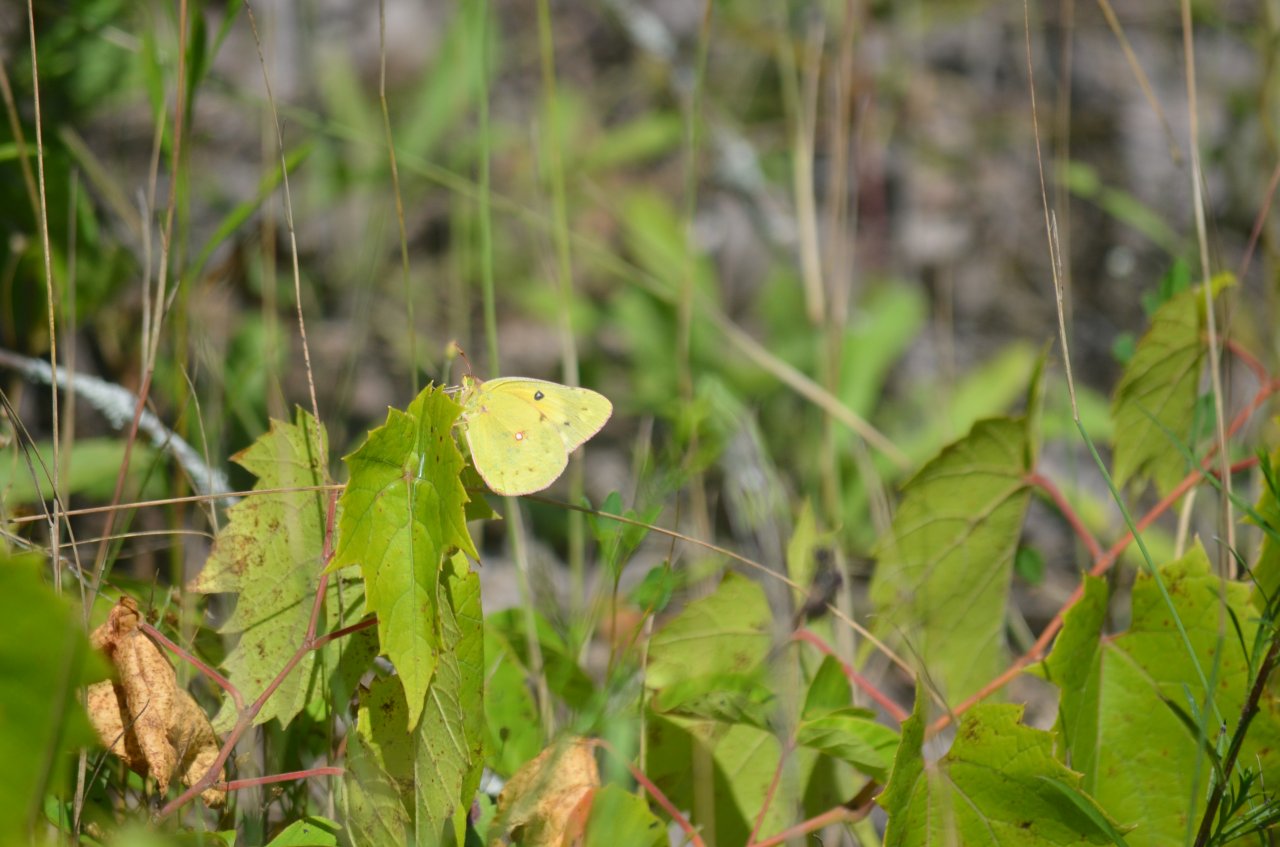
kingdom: Animalia
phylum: Arthropoda
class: Insecta
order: Lepidoptera
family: Pieridae
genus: Colias
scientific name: Colias philodice
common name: Clouded Sulphur
